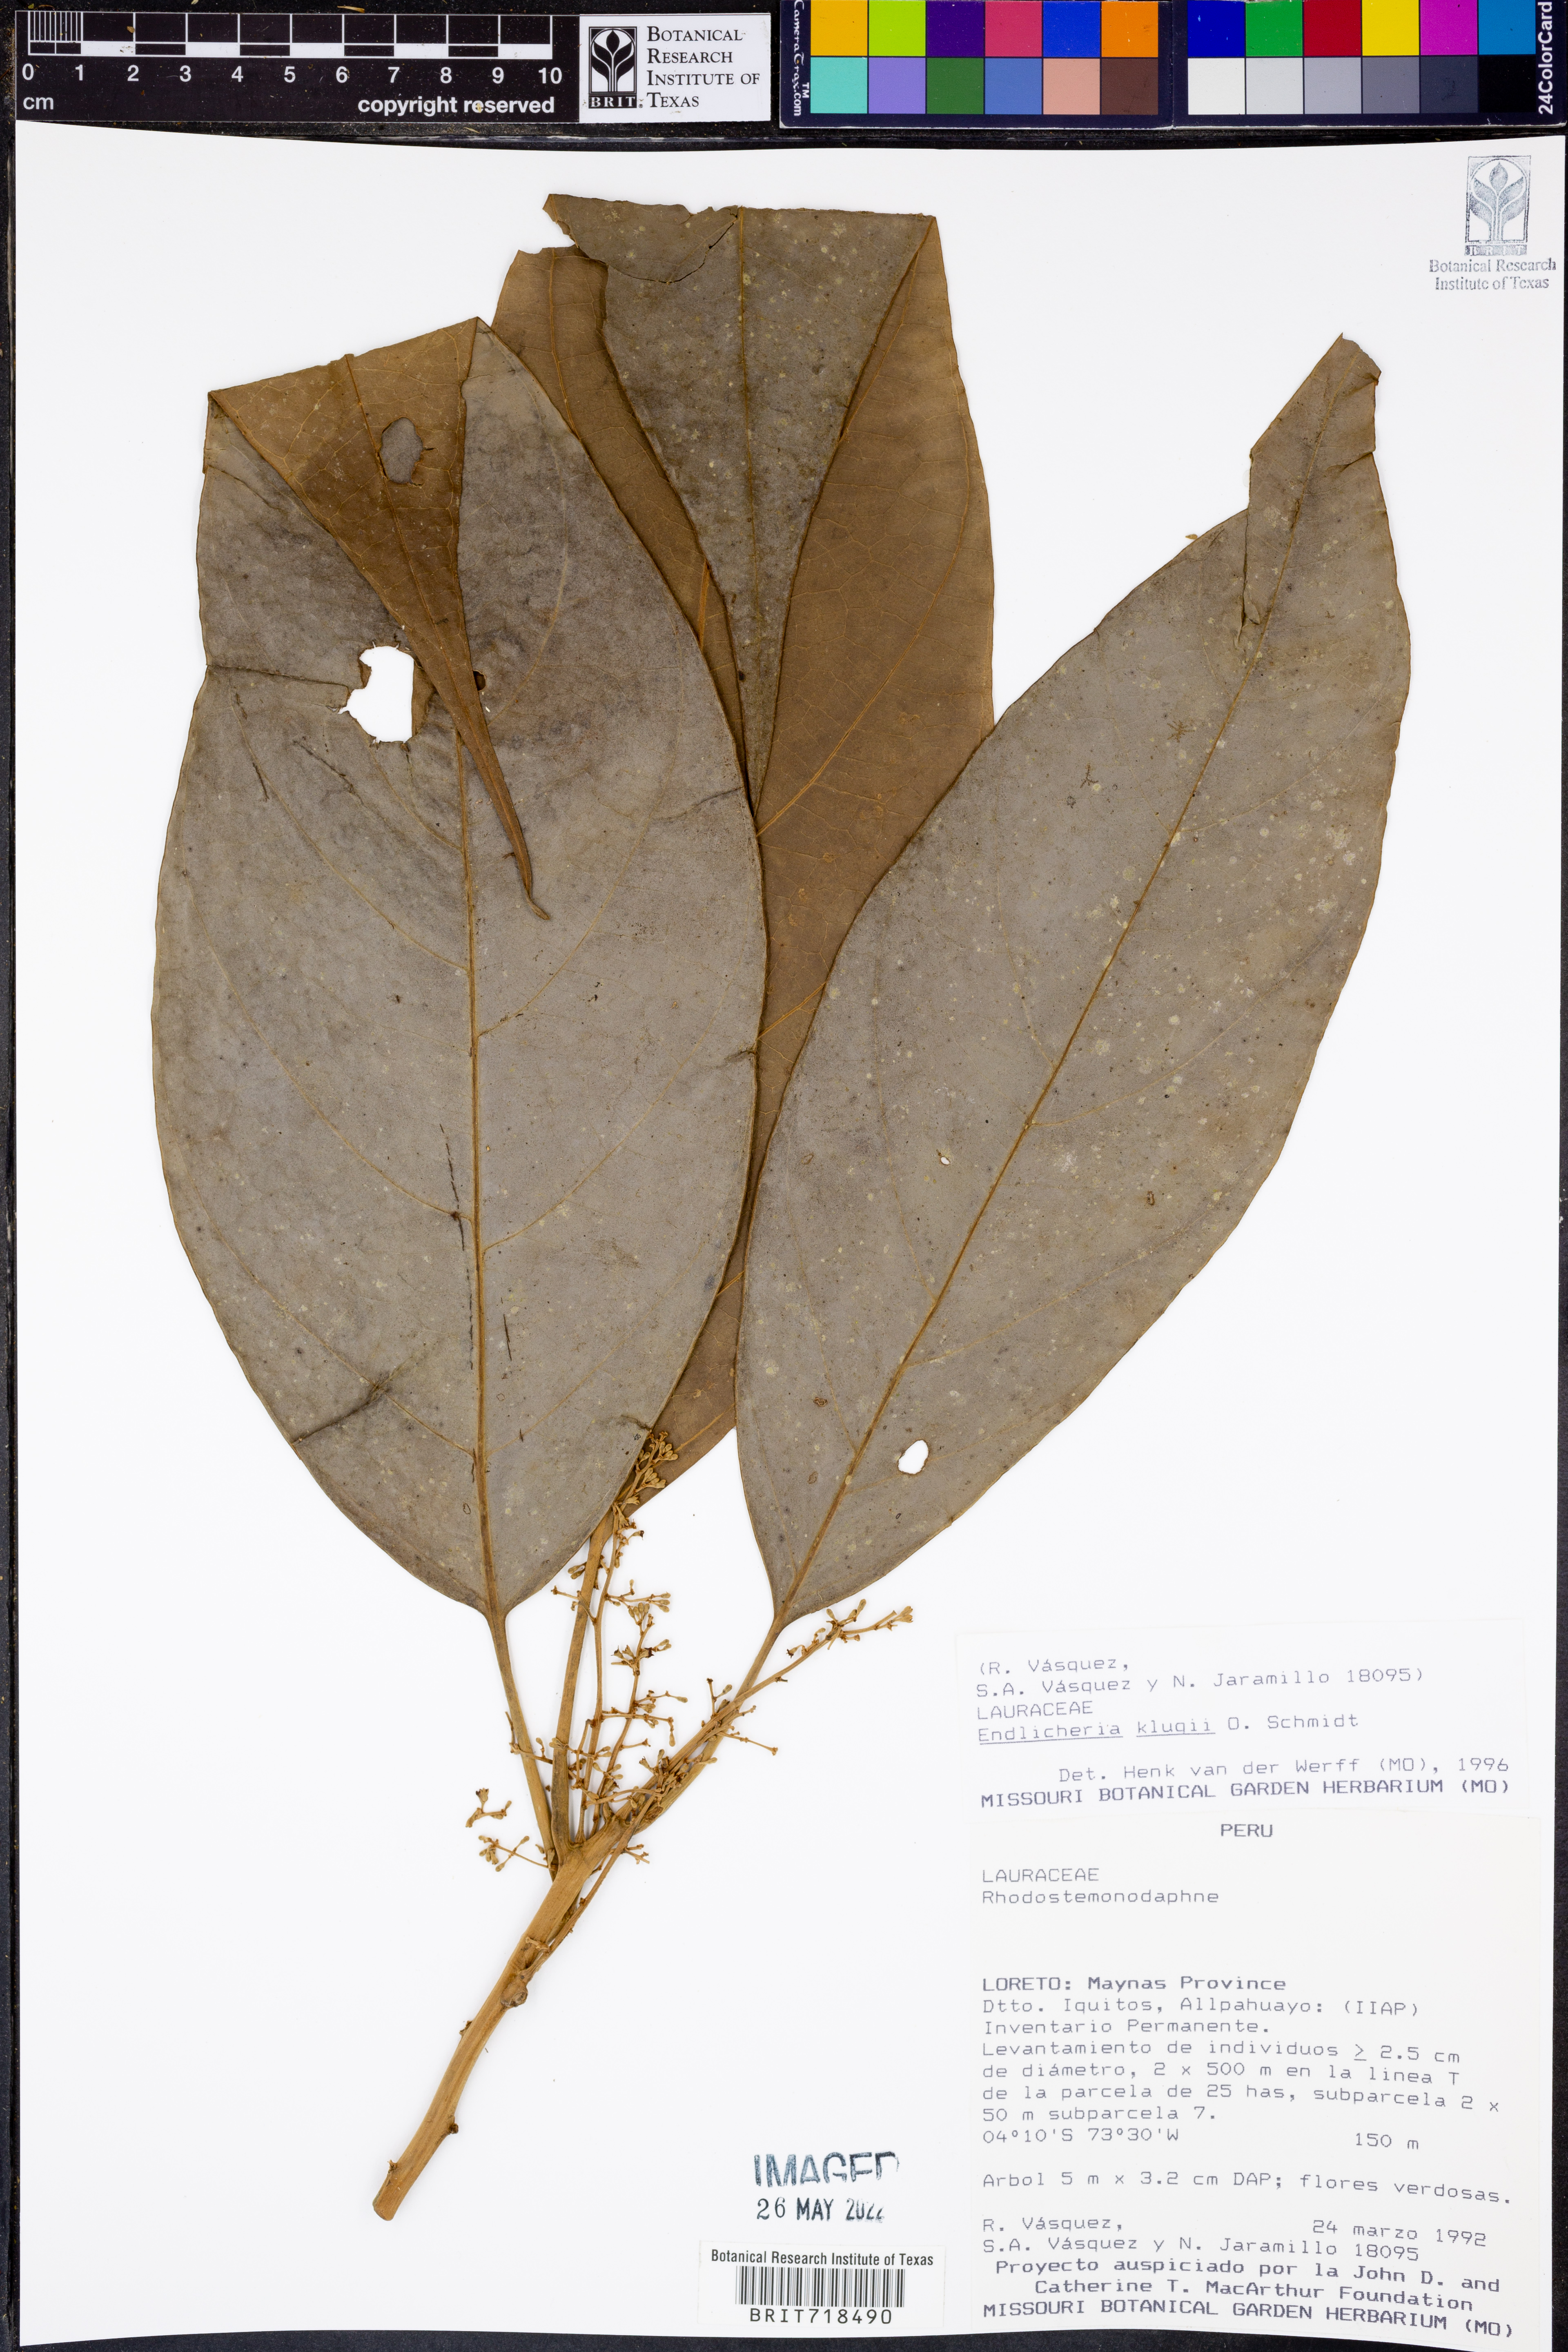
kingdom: Plantae
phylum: Tracheophyta
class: Magnoliopsida
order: Laurales
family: Lauraceae
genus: Endlicheria
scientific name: Endlicheria
